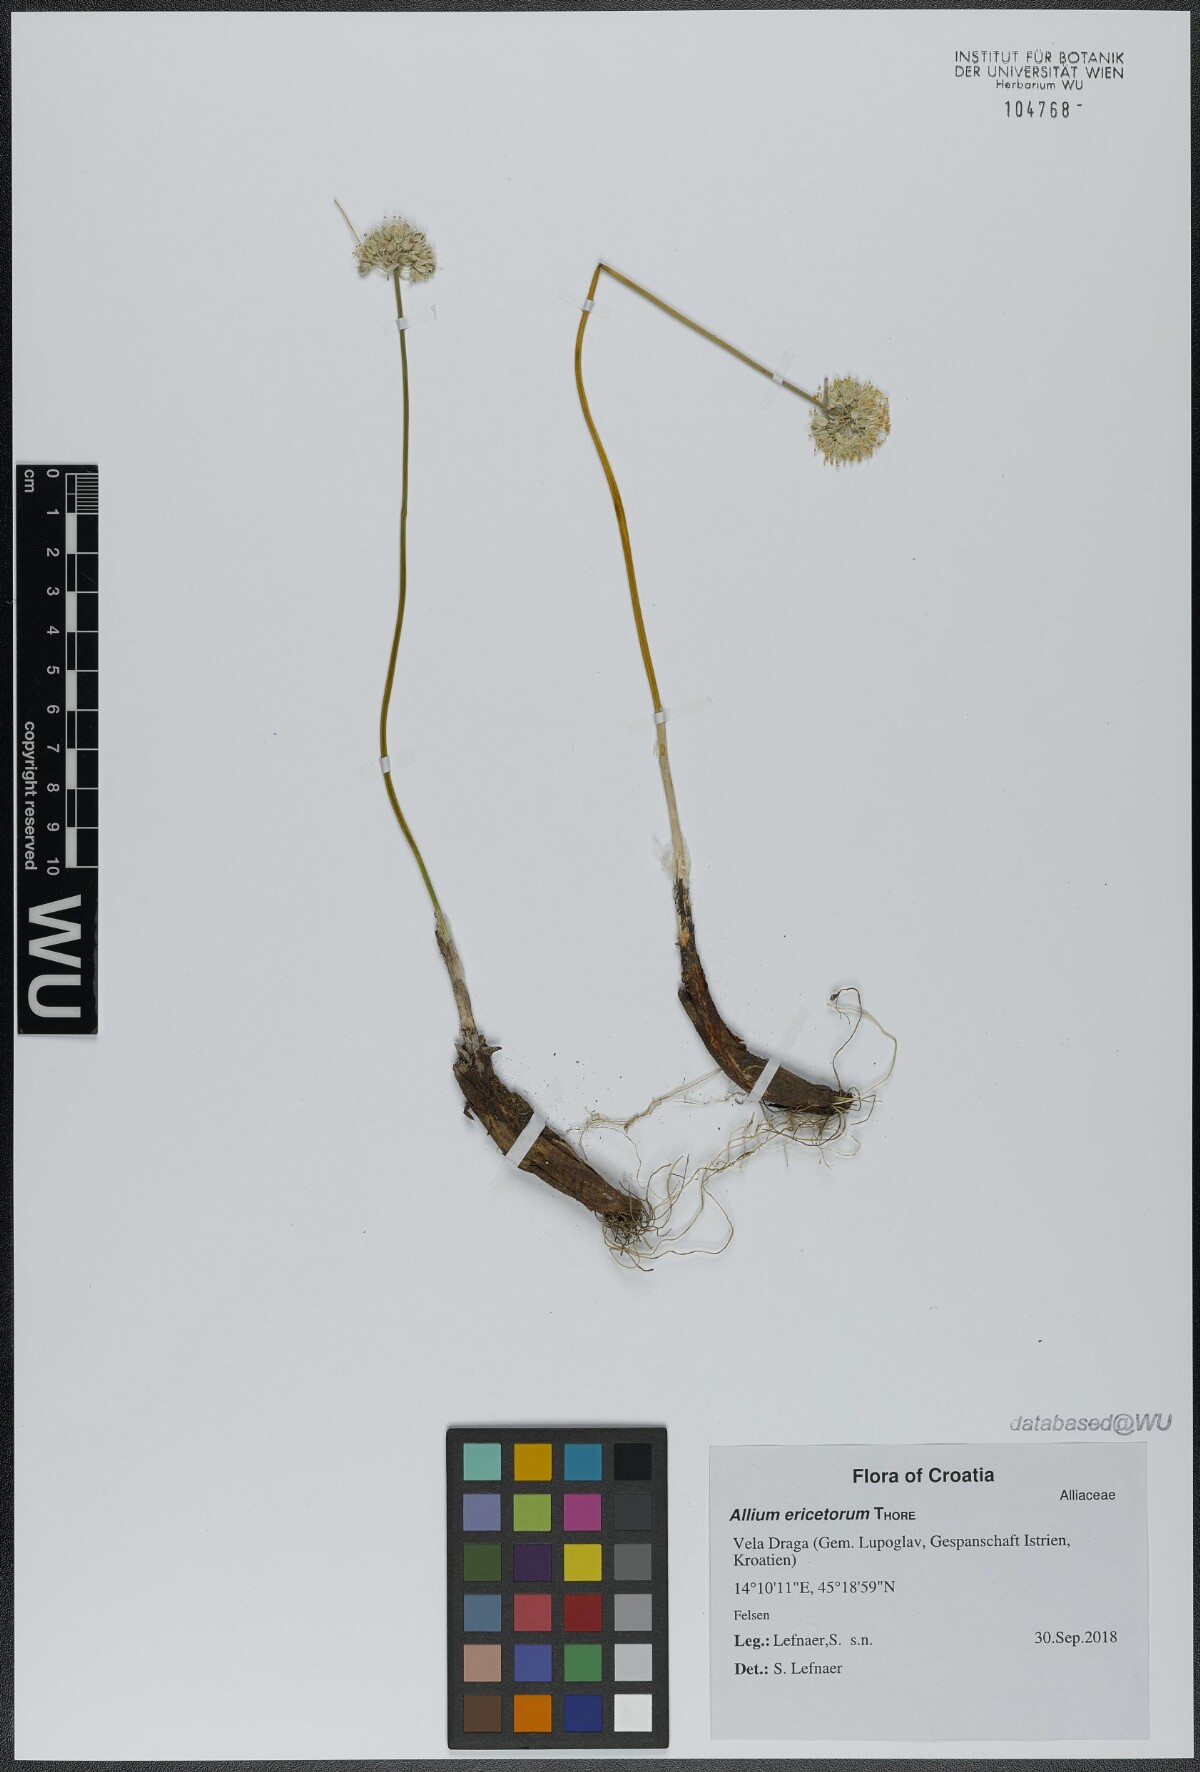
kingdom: Plantae
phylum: Tracheophyta
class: Liliopsida
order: Asparagales
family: Amaryllidaceae
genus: Allium
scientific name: Allium ericetorum
